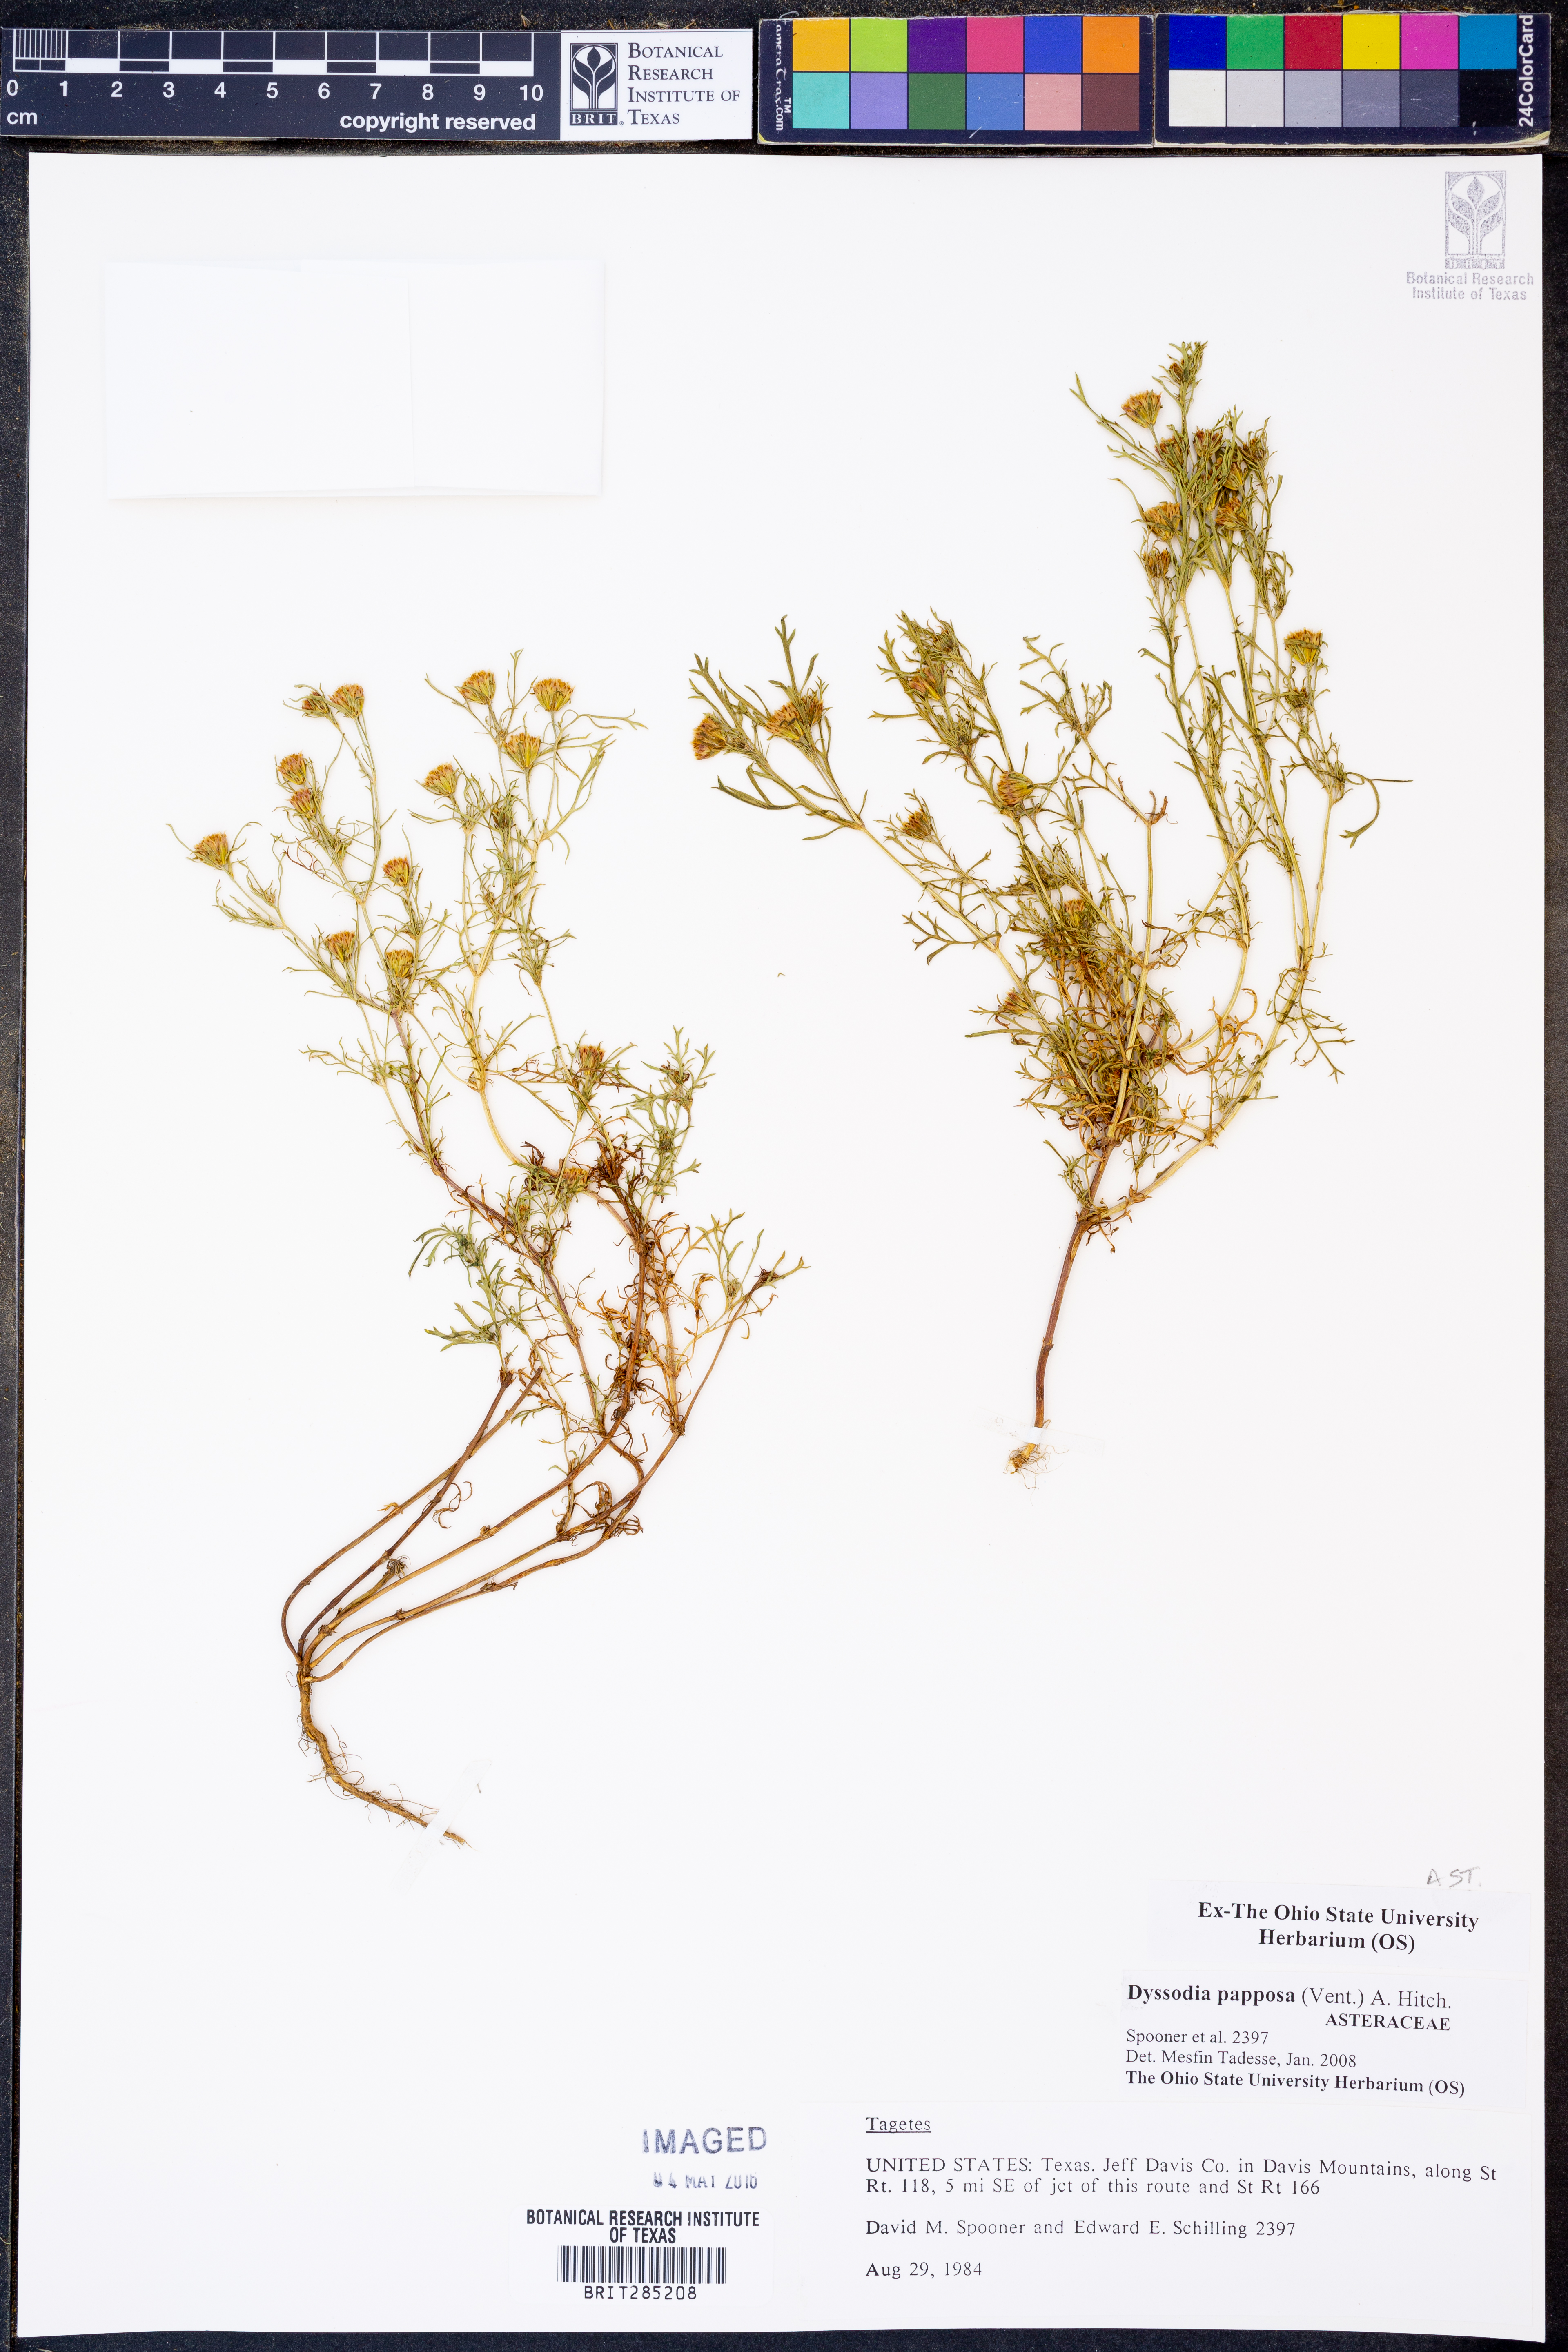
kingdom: Plantae
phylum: Tracheophyta
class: Magnoliopsida
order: Asterales
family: Asteraceae
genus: Dyssodia
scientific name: Dyssodia papposa
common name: Dogweed
